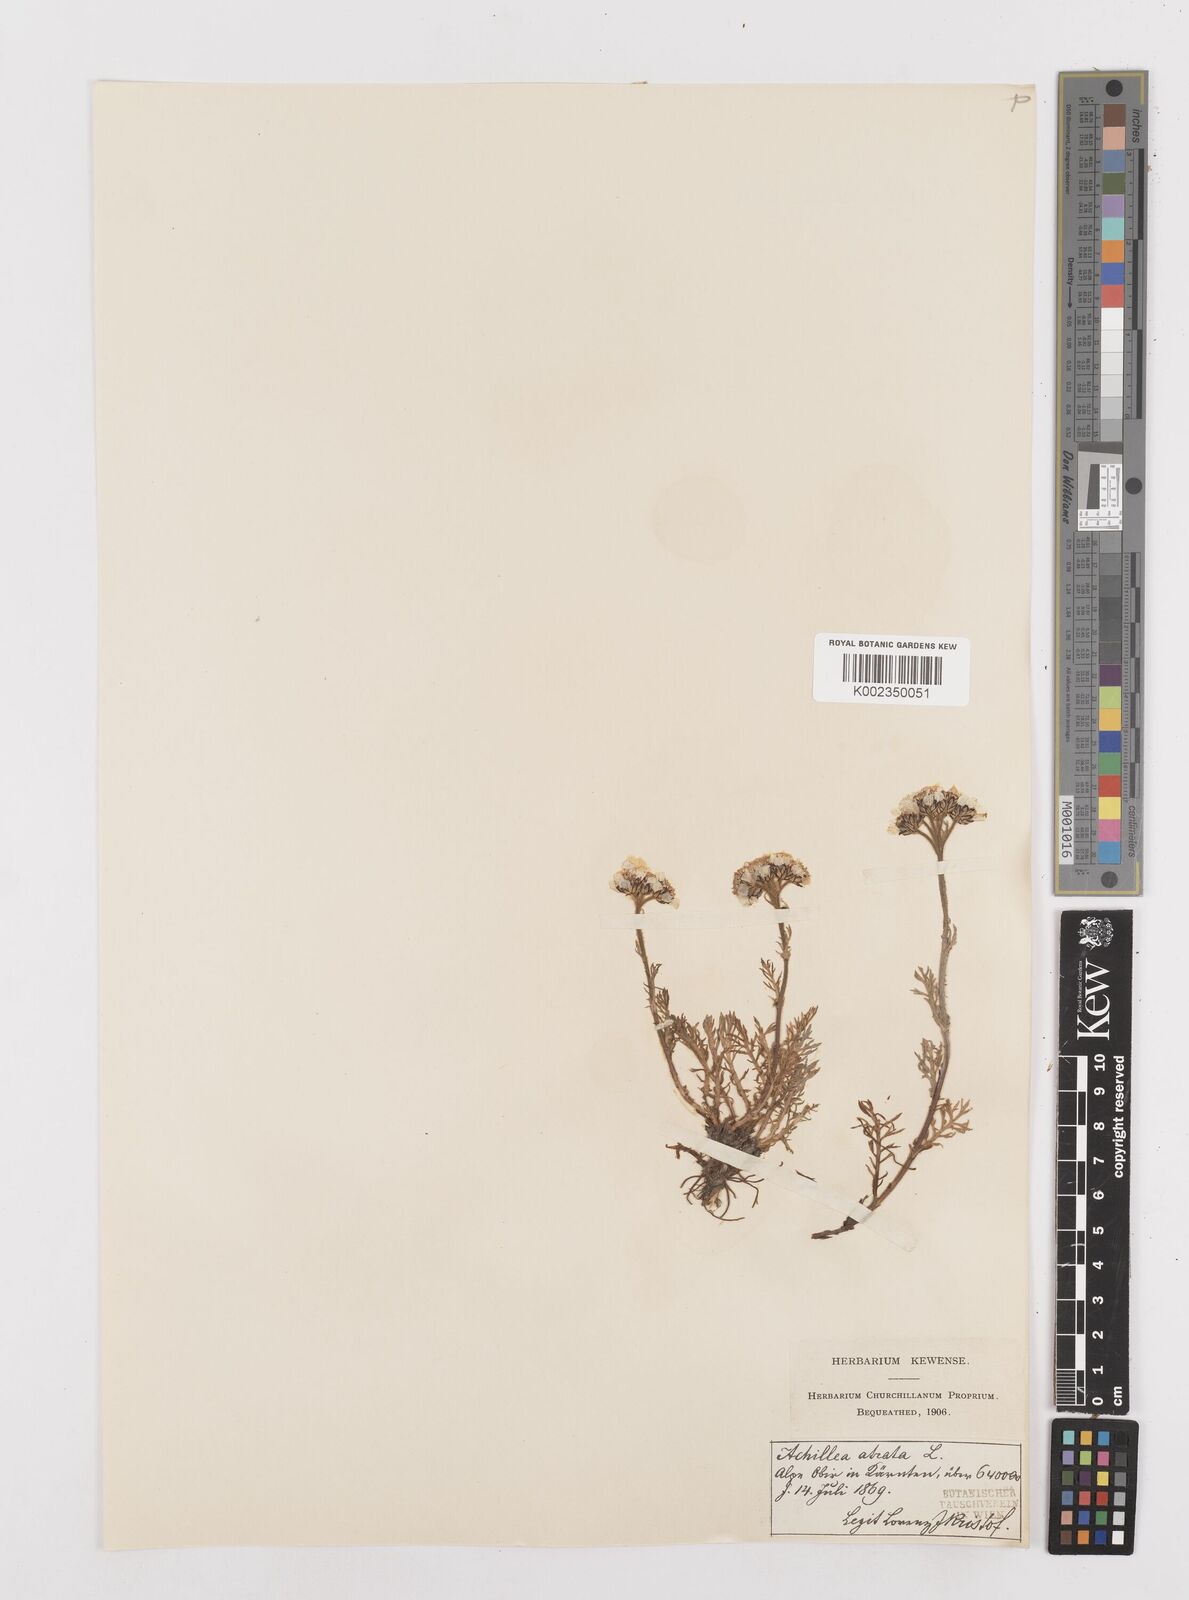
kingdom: Plantae
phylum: Tracheophyta
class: Magnoliopsida
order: Asterales
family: Asteraceae
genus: Achillea
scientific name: Achillea atrata
